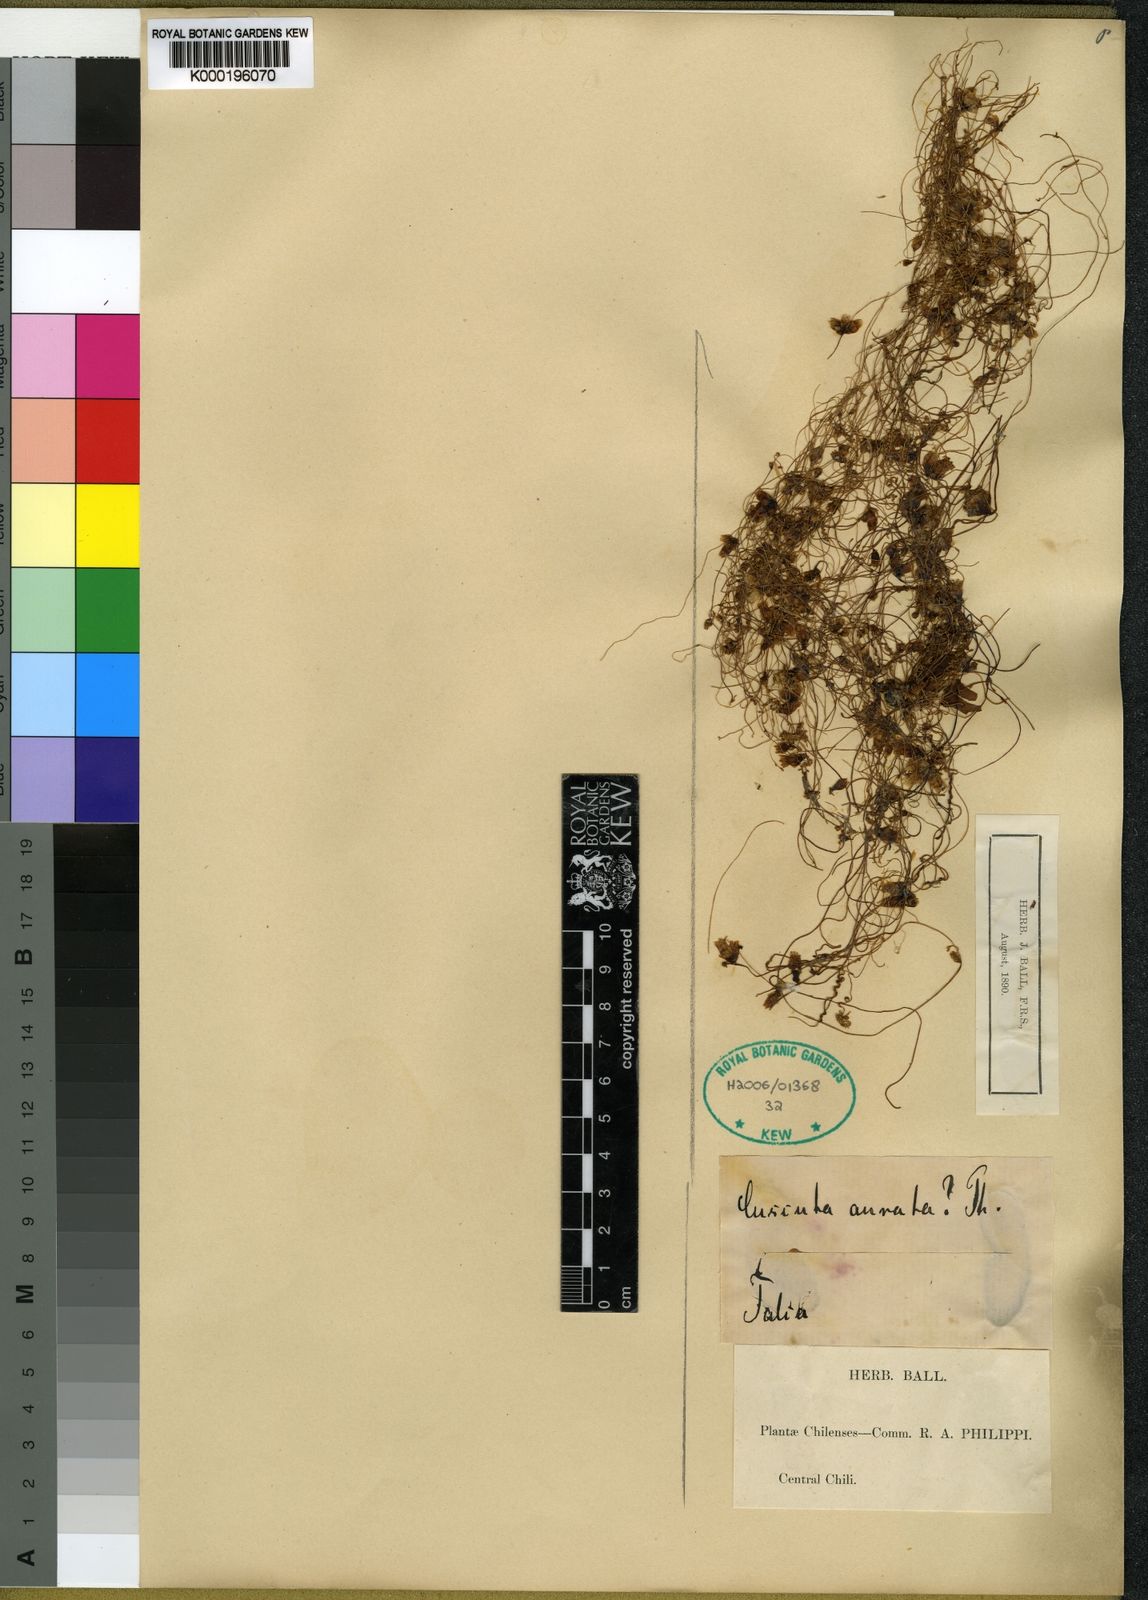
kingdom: Plantae
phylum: Tracheophyta
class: Magnoliopsida
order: Solanales
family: Convolvulaceae
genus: Cuscuta
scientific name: Cuscuta chilensis
